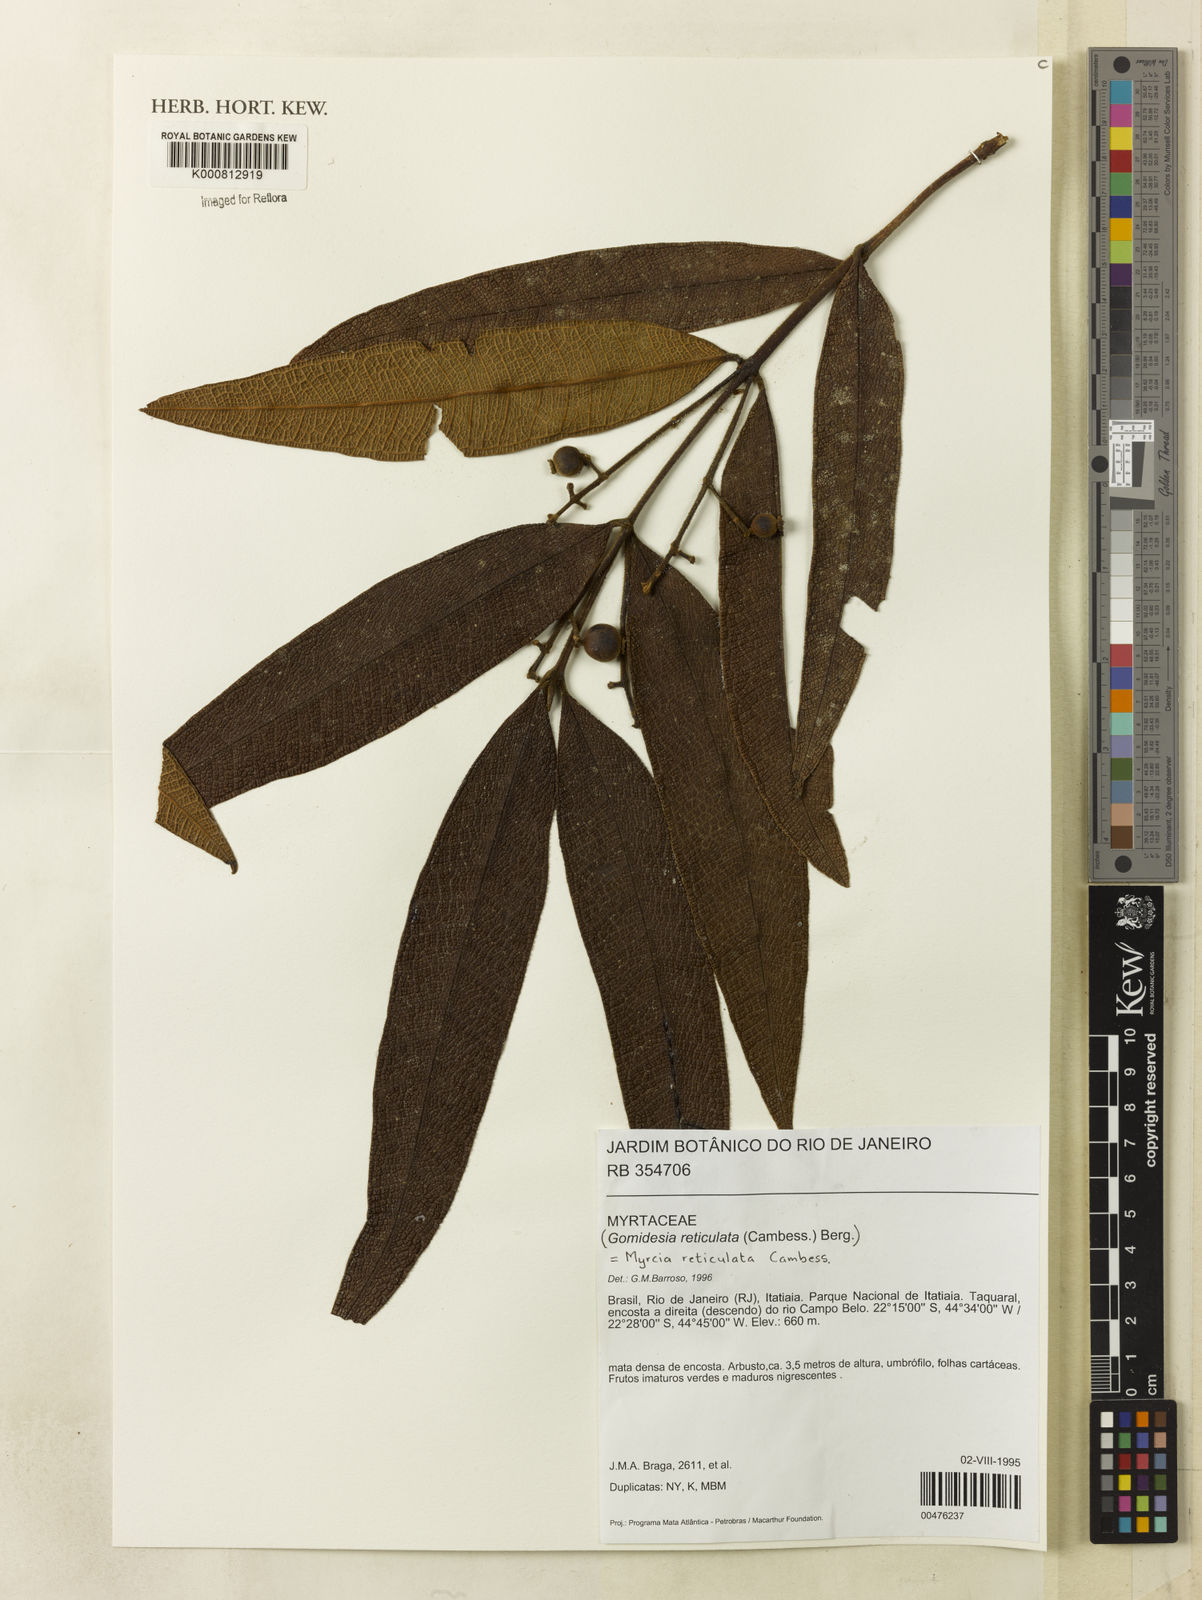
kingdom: Plantae
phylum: Tracheophyta
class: Magnoliopsida
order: Myrtales
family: Myrtaceae
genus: Myrcia
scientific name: Myrcia reticulata
